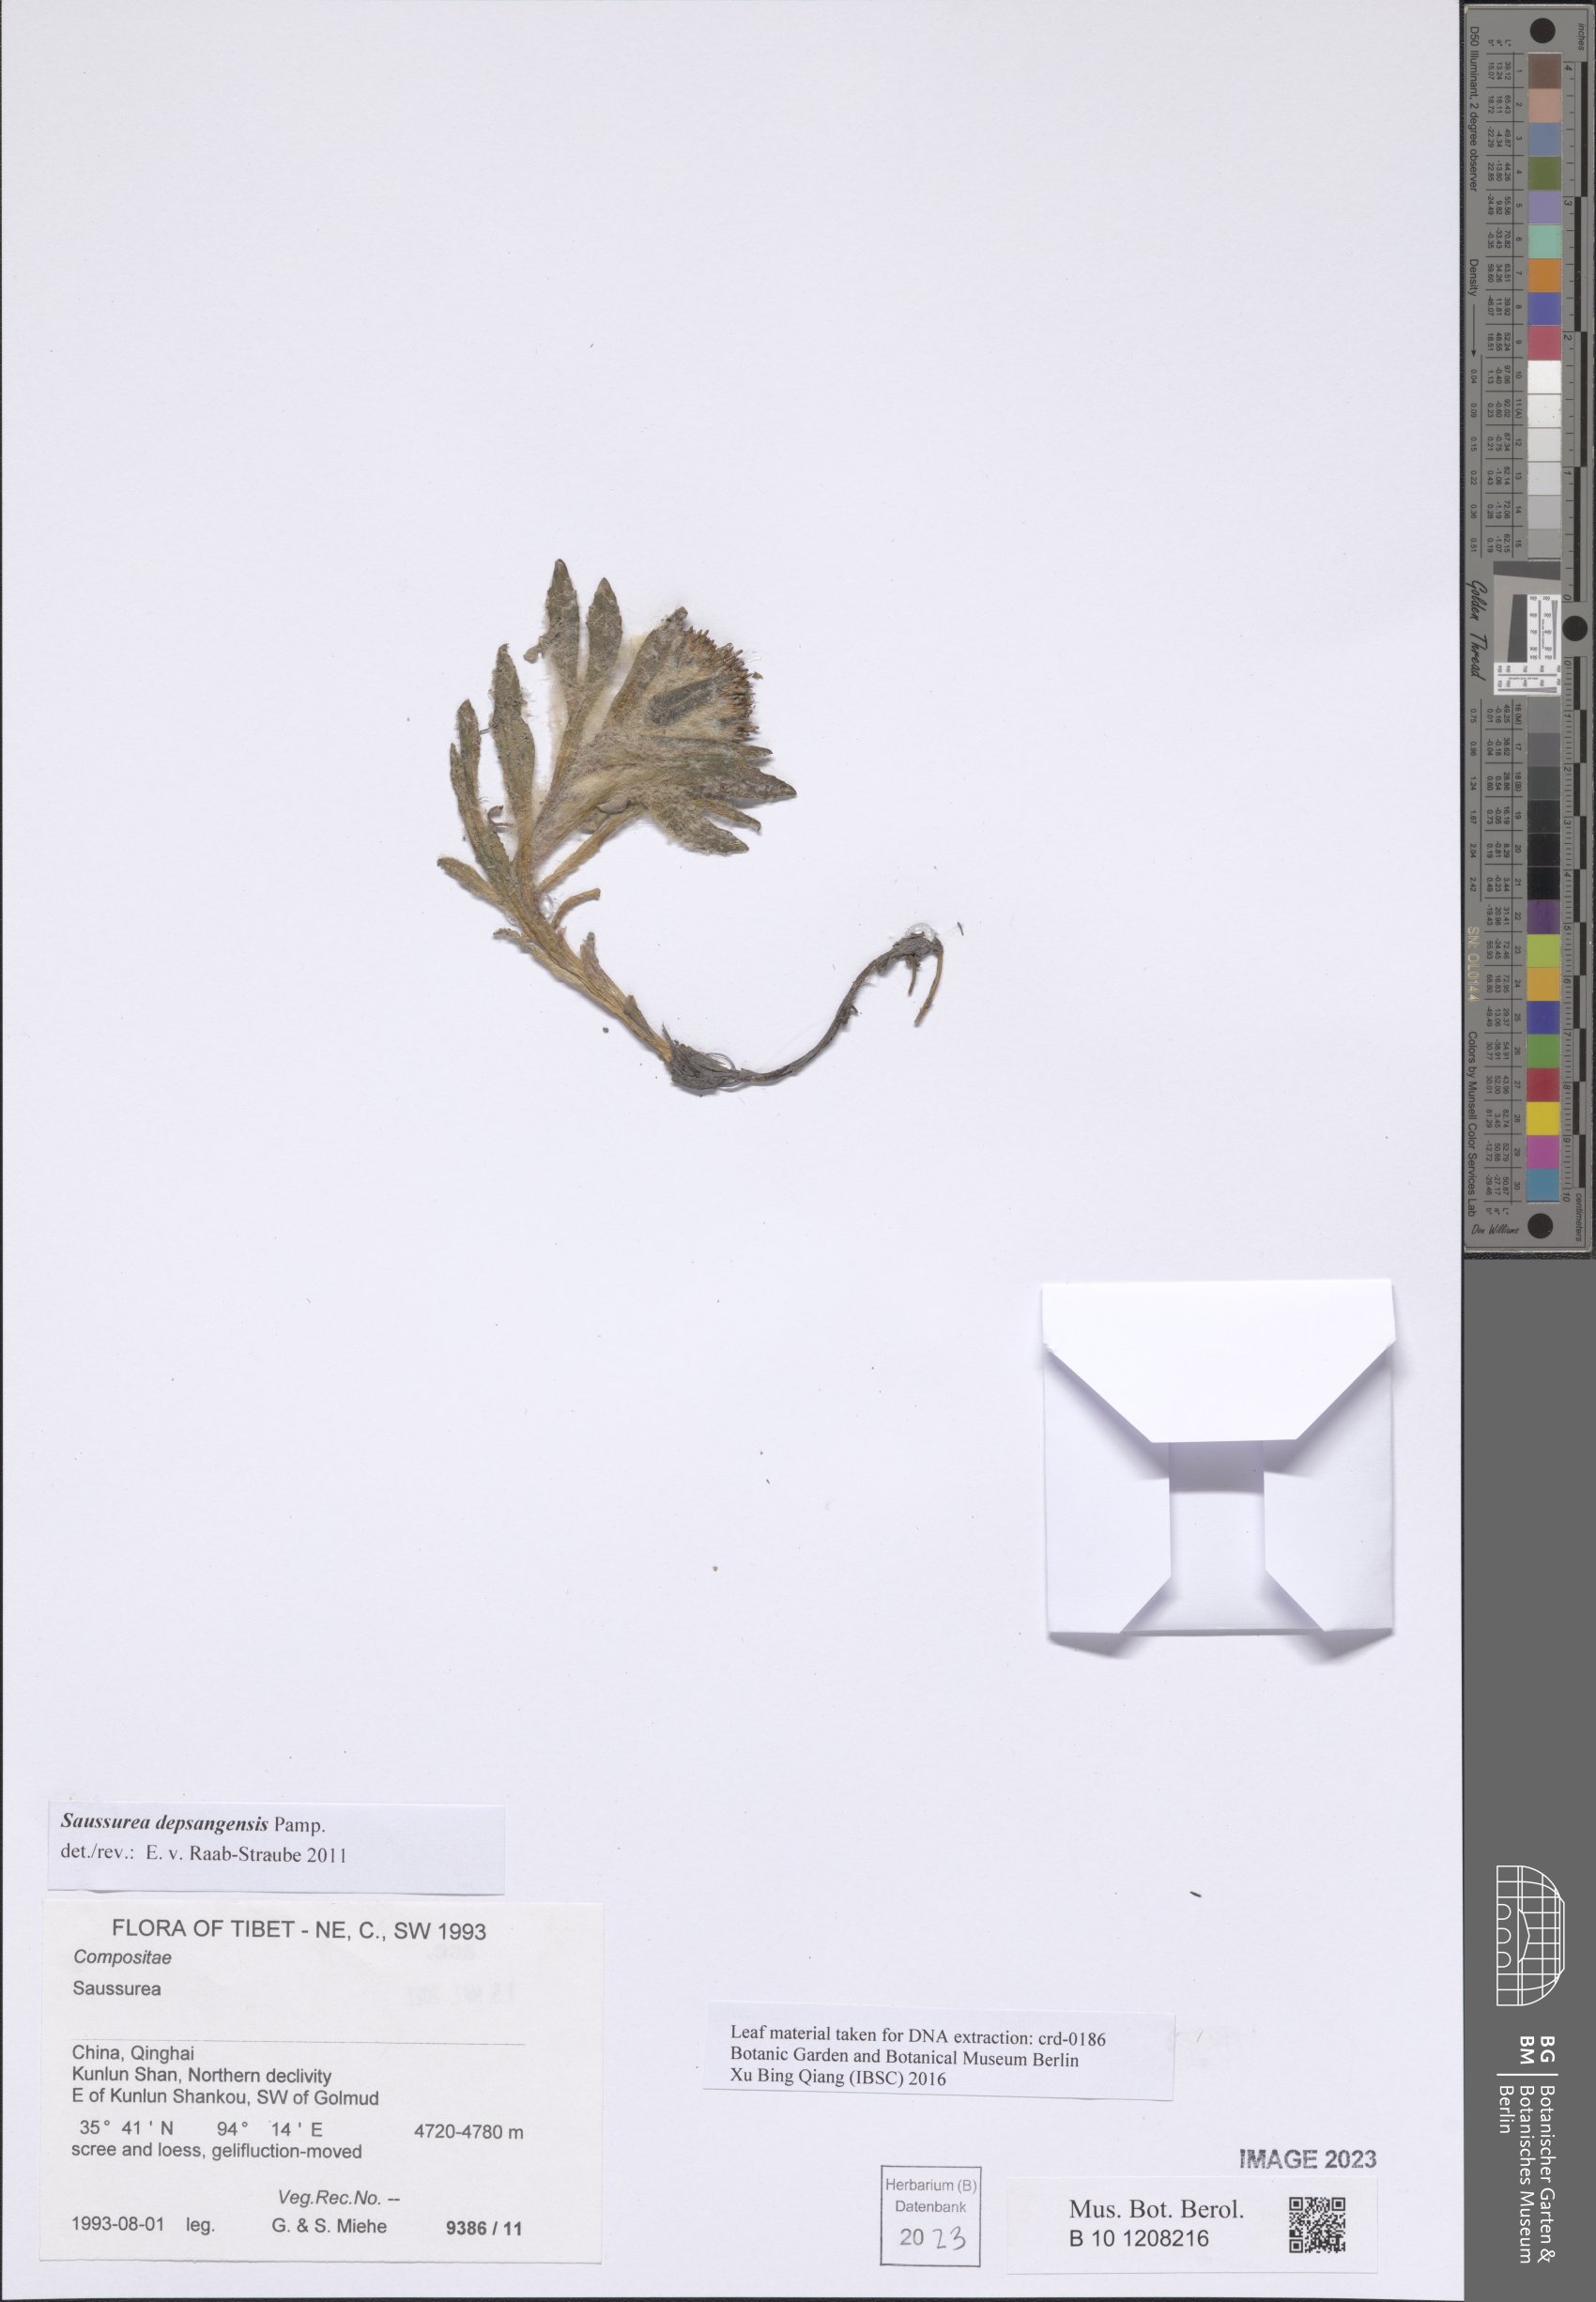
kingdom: Plantae
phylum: Tracheophyta
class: Magnoliopsida
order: Asterales
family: Asteraceae
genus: Saussurea
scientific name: Saussurea depsangensis
